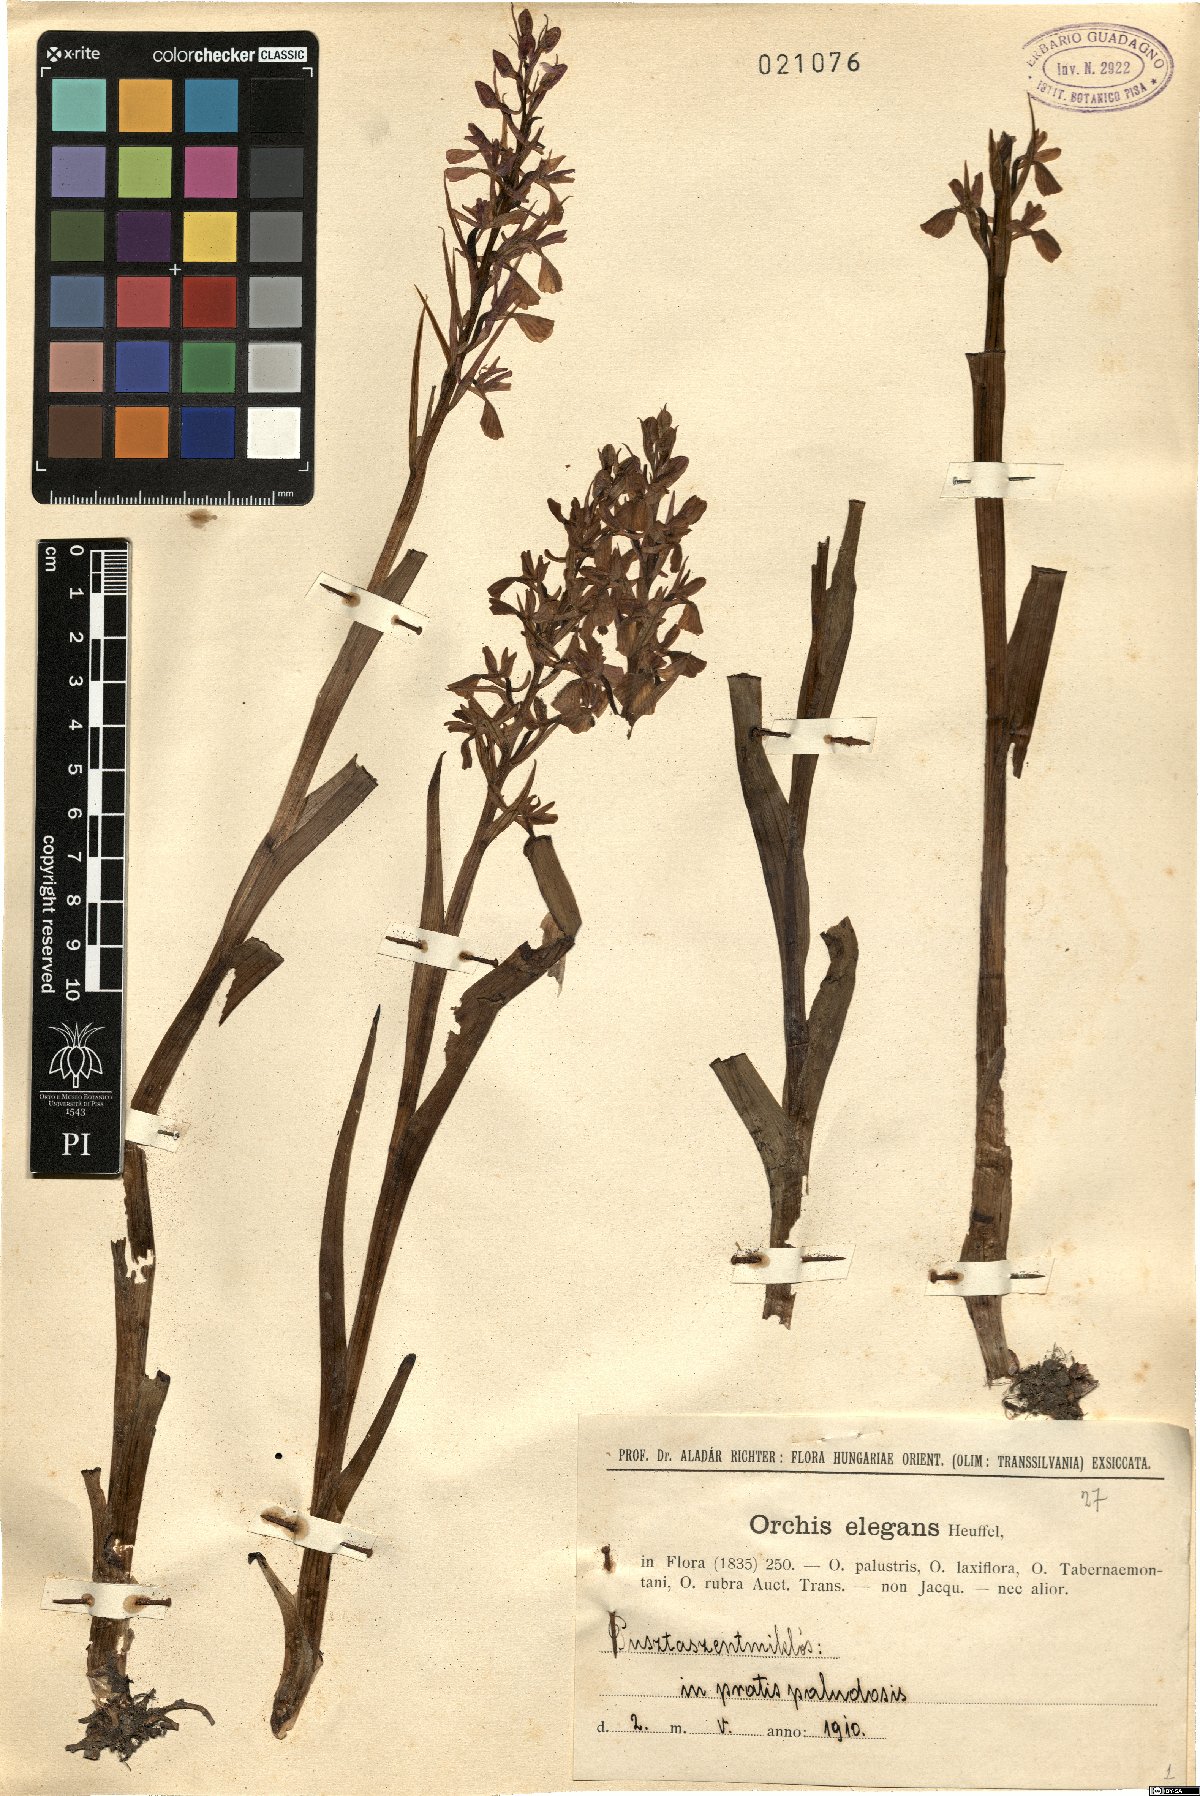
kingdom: Plantae
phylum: Tracheophyta
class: Liliopsida
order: Asparagales
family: Orchidaceae
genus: Anacamptis
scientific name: Anacamptis palustris
